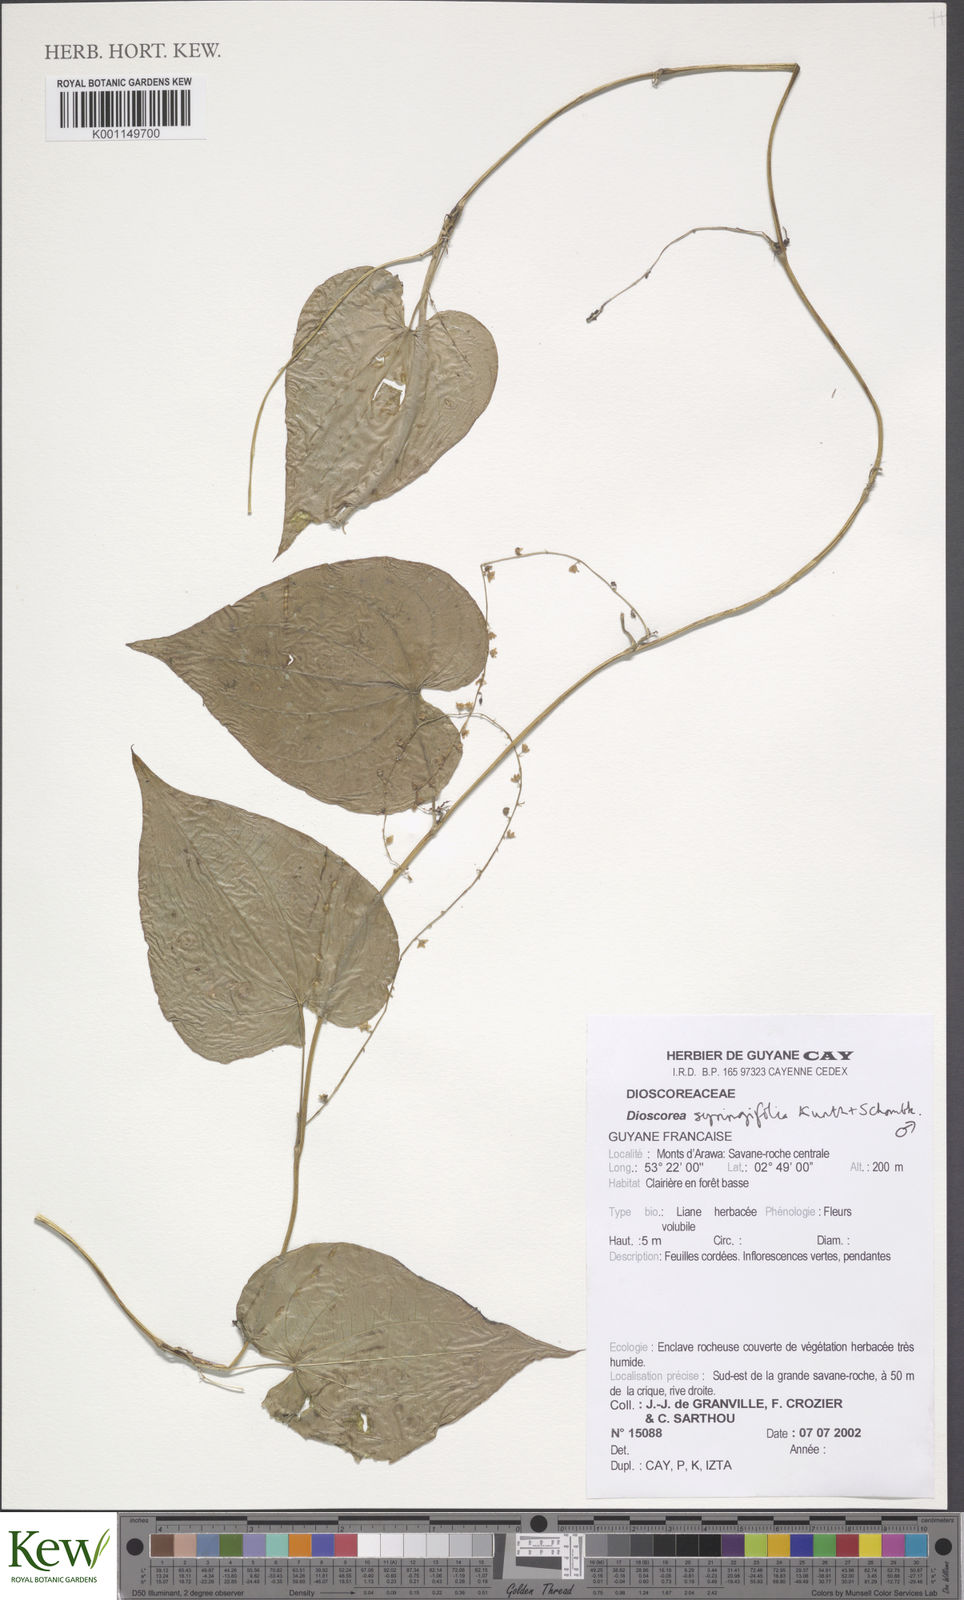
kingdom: Plantae
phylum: Tracheophyta
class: Liliopsida
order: Dioscoreales
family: Dioscoreaceae
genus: Dioscorea
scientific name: Dioscorea syringifolia
